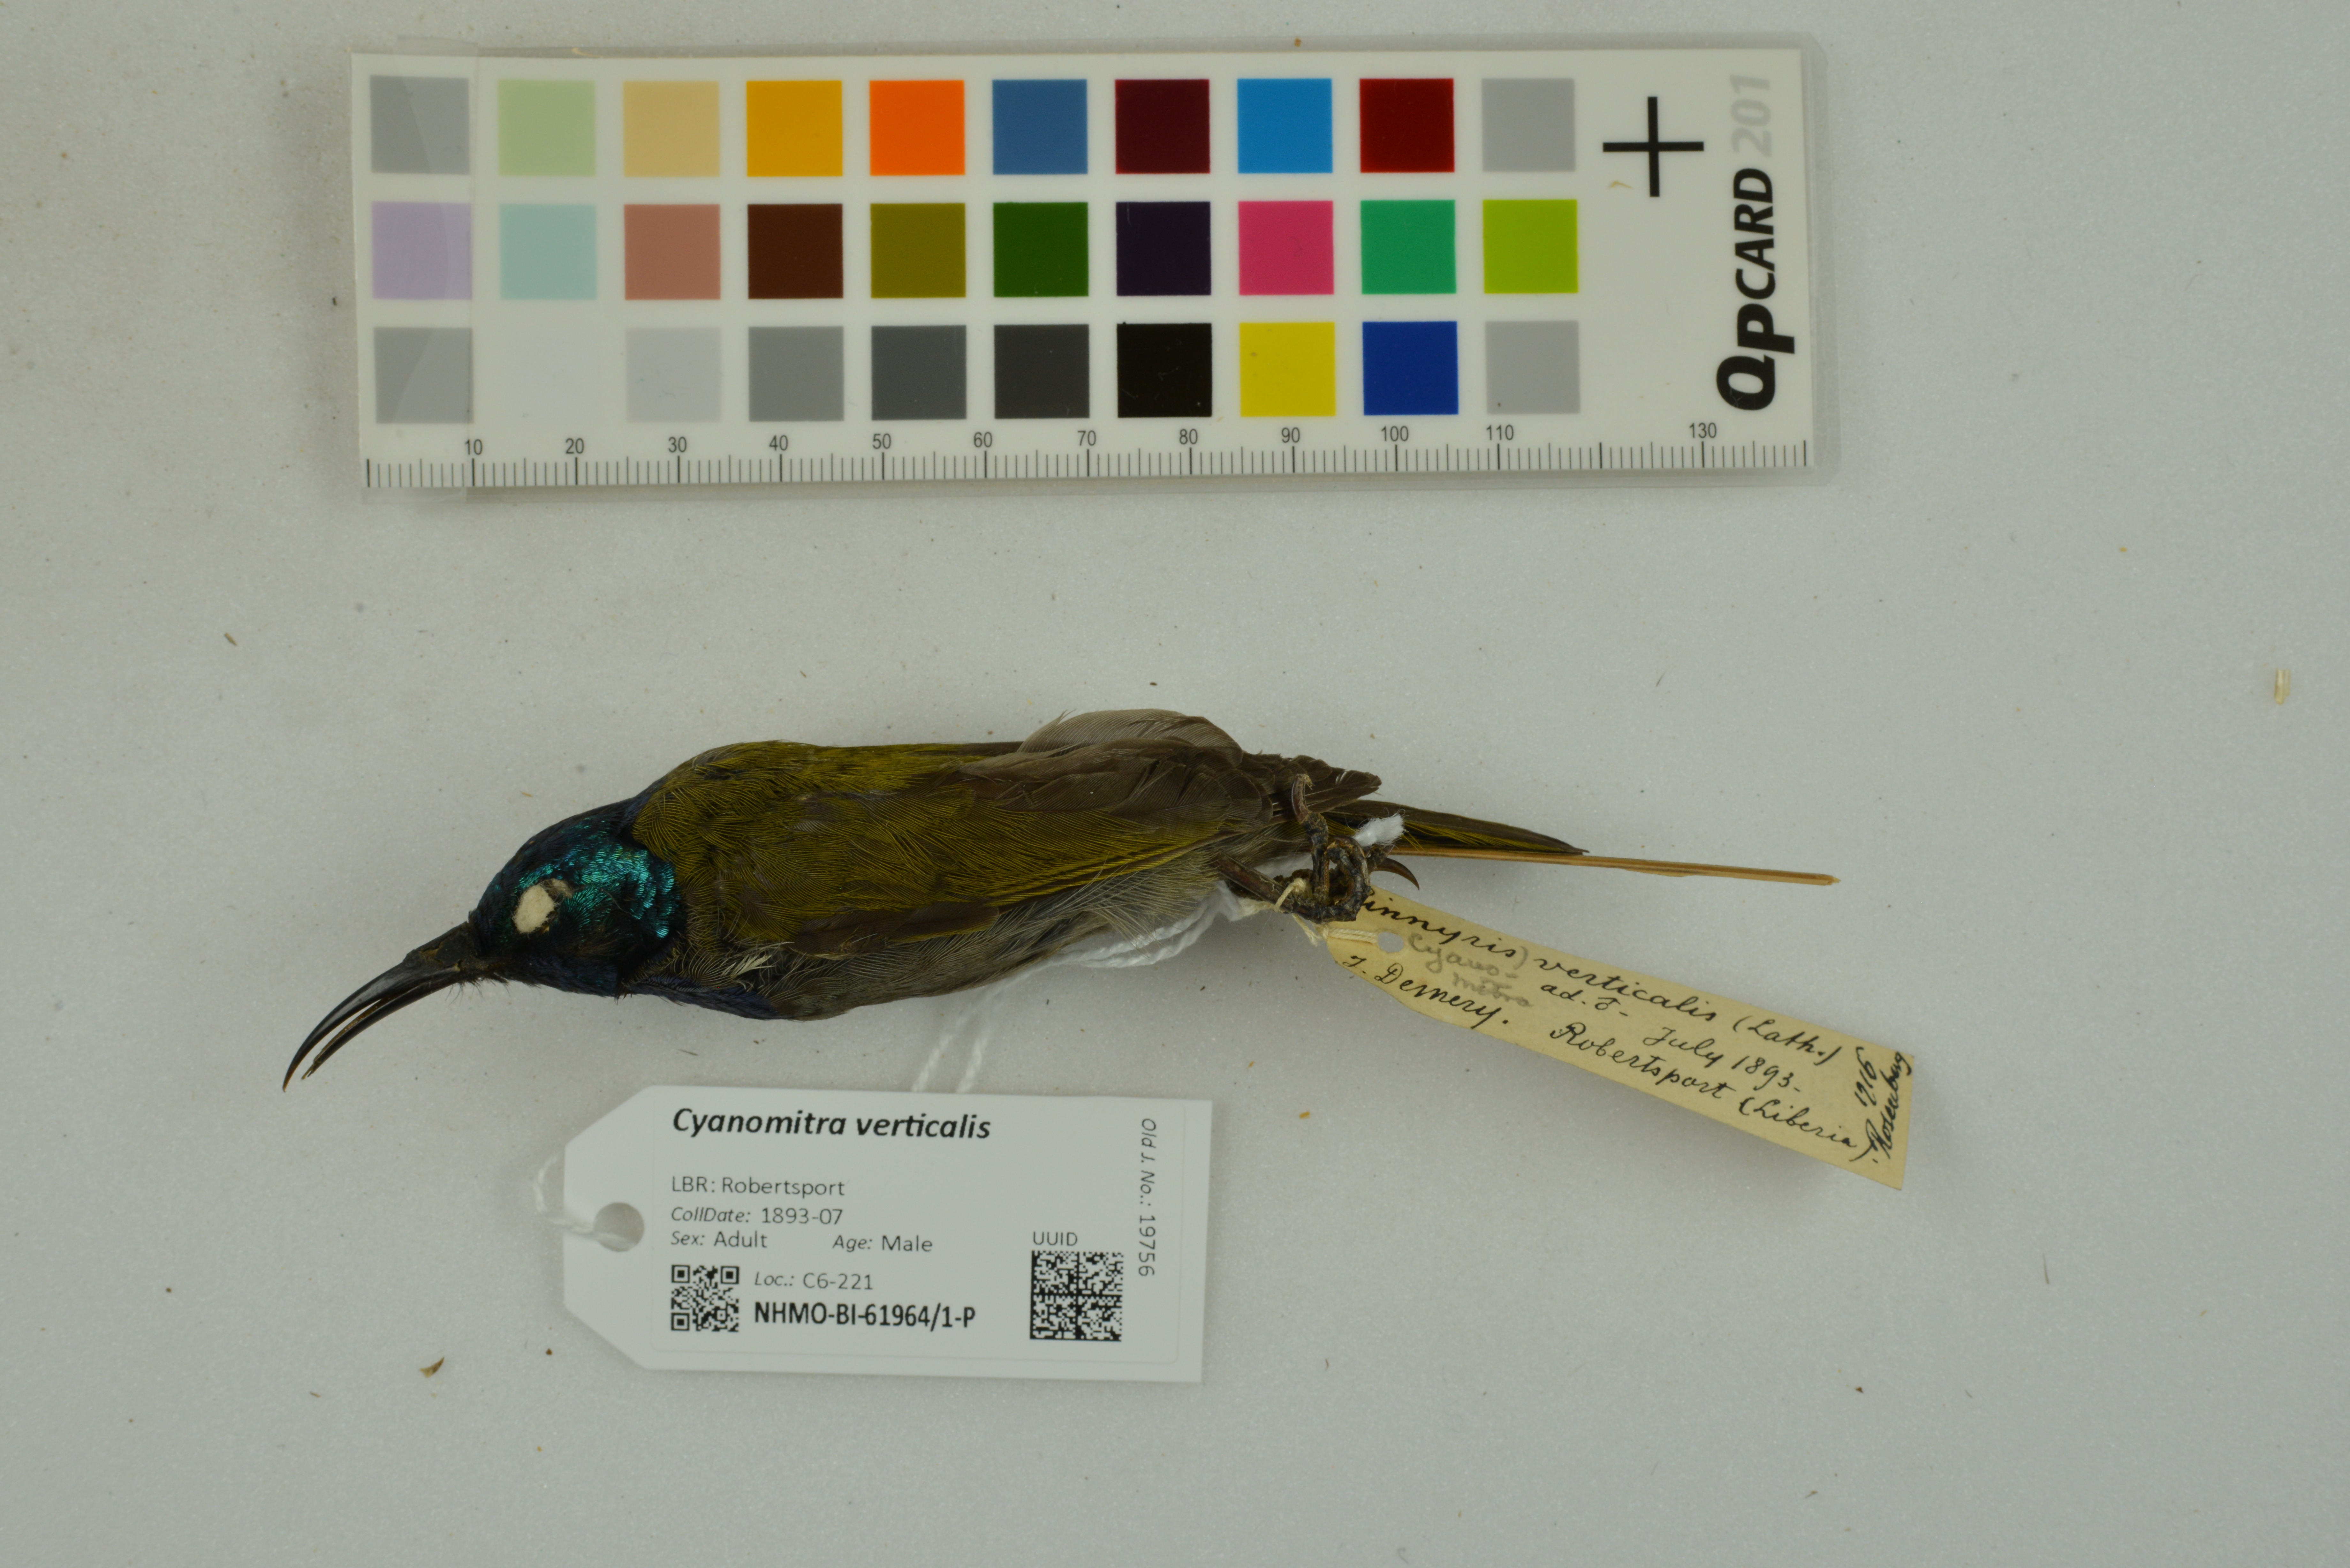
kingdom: Animalia
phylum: Chordata
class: Aves
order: Passeriformes
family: Nectariniidae
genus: Cyanomitra
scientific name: Cyanomitra verticalis
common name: Green-headed sunbird
